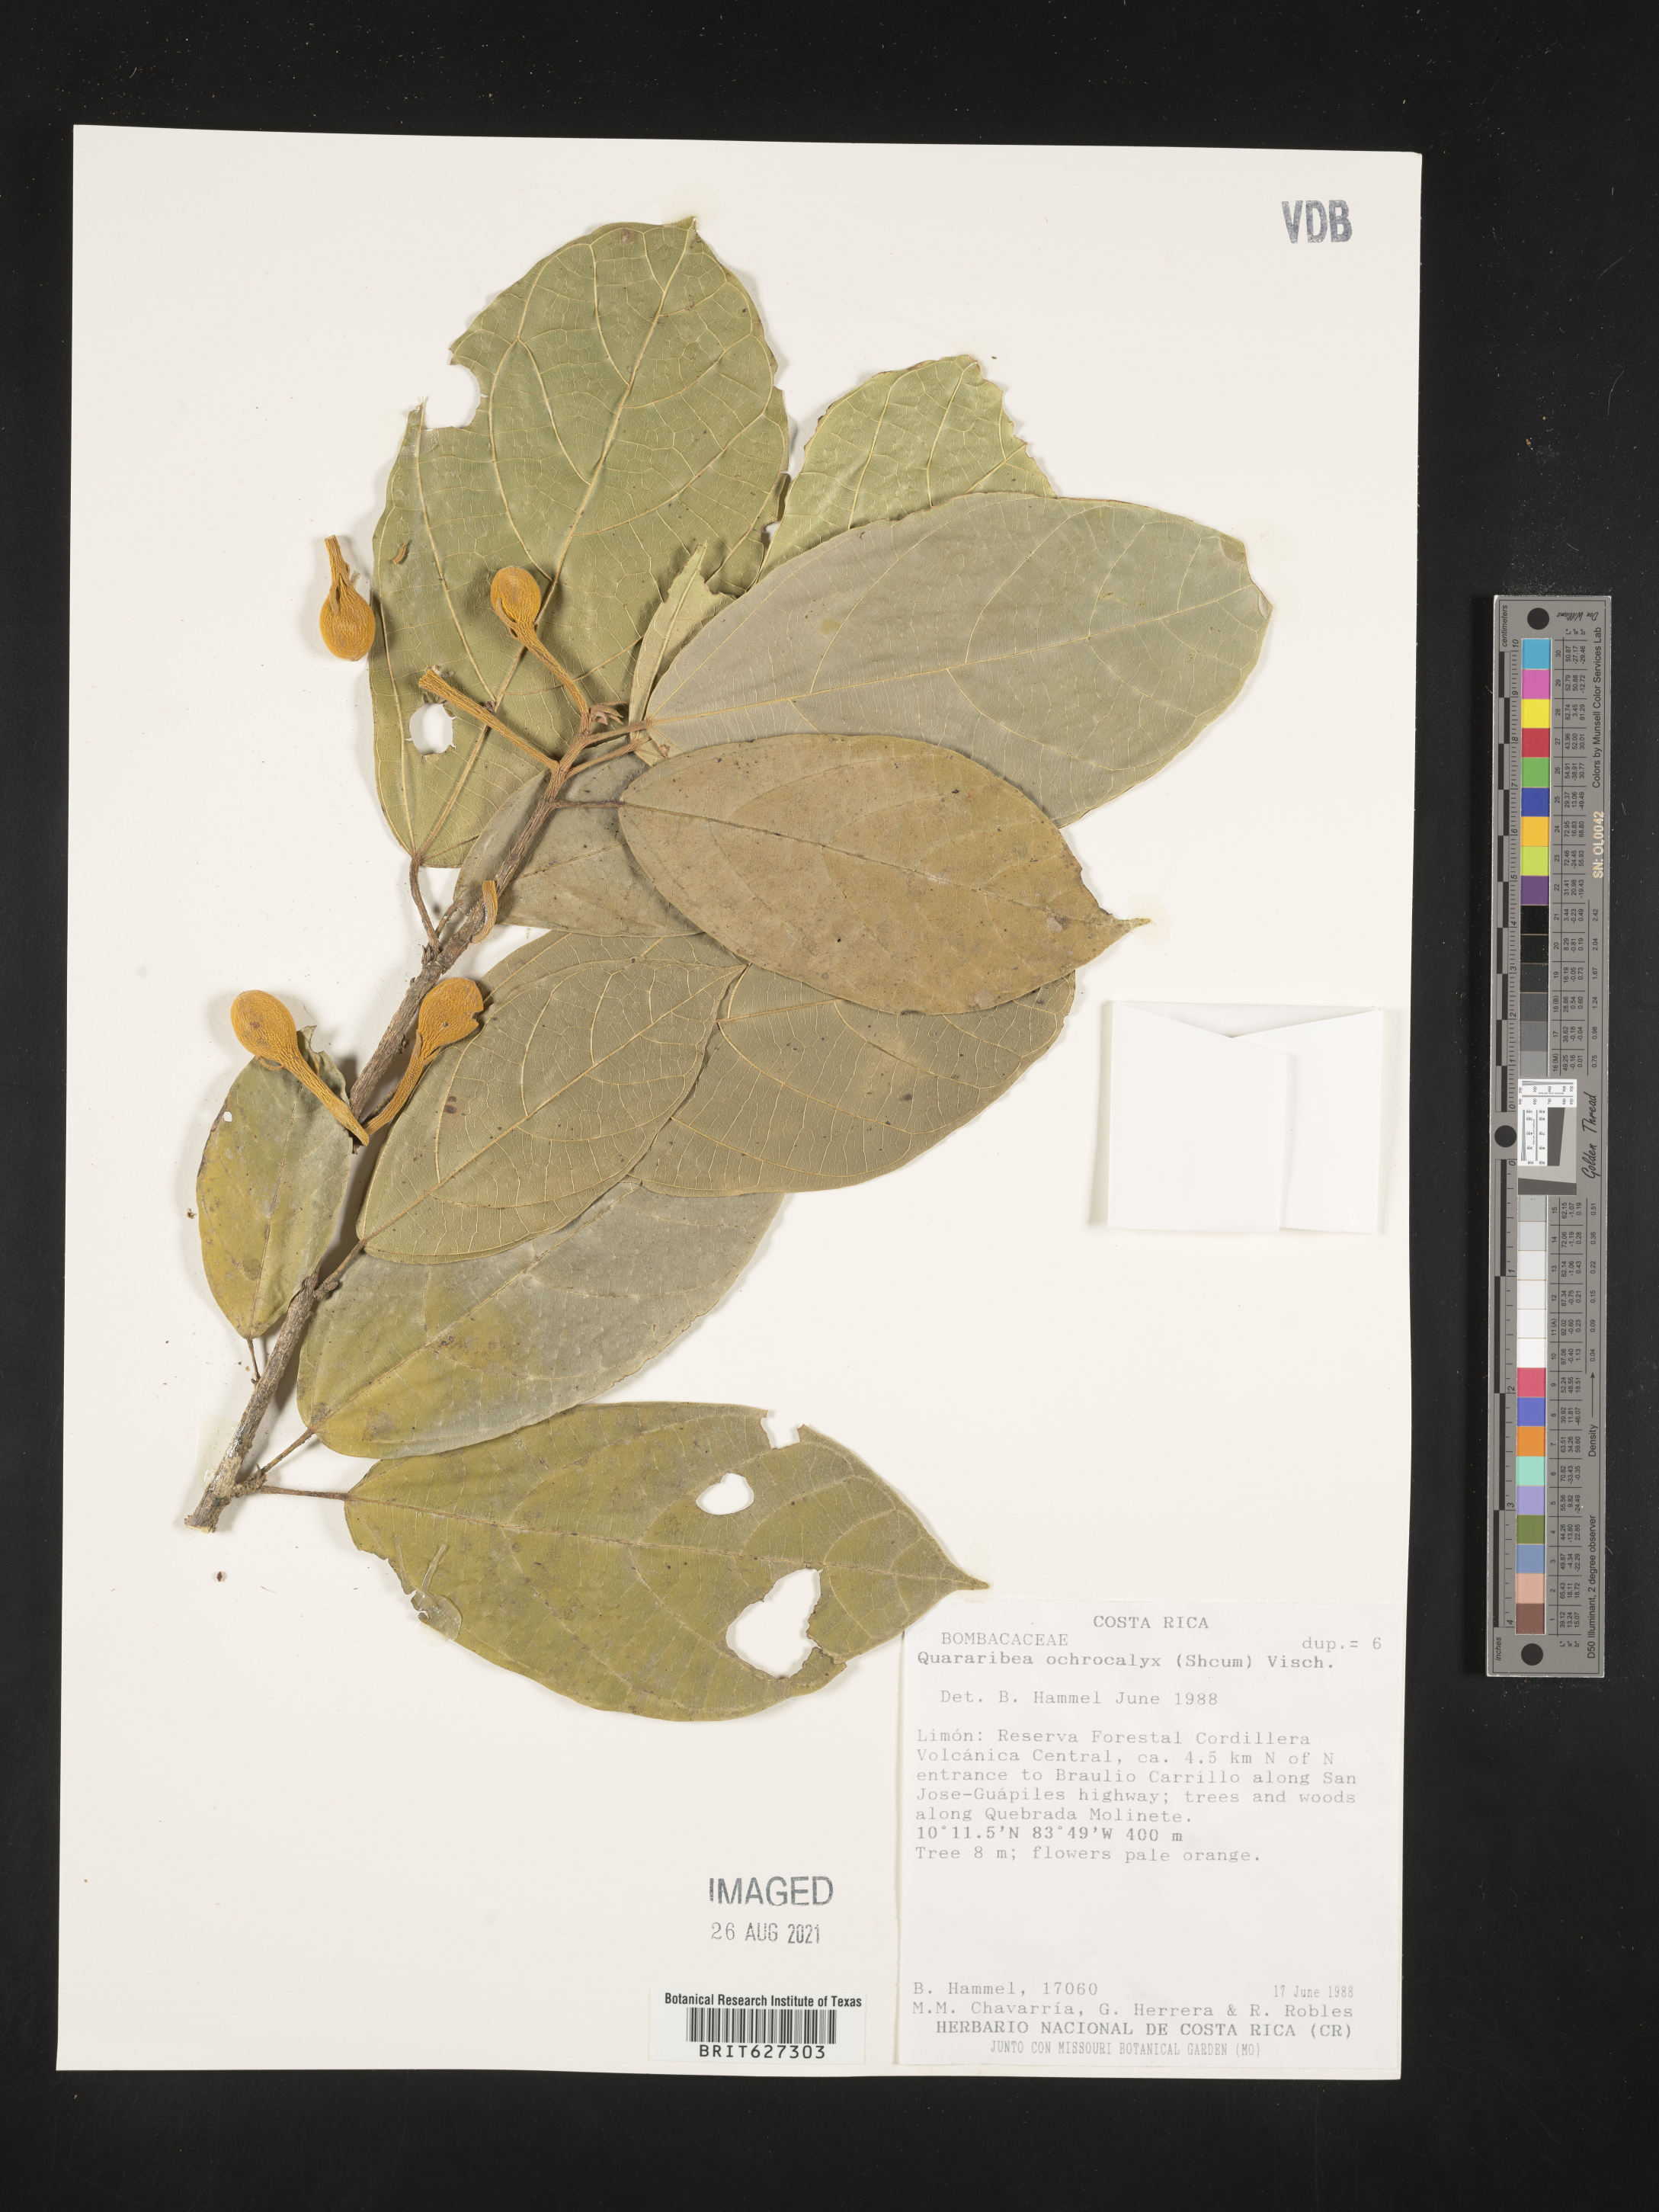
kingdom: Plantae
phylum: Tracheophyta
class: Magnoliopsida
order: Malvales
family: Malvaceae
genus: Quararibea
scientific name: Quararibea
